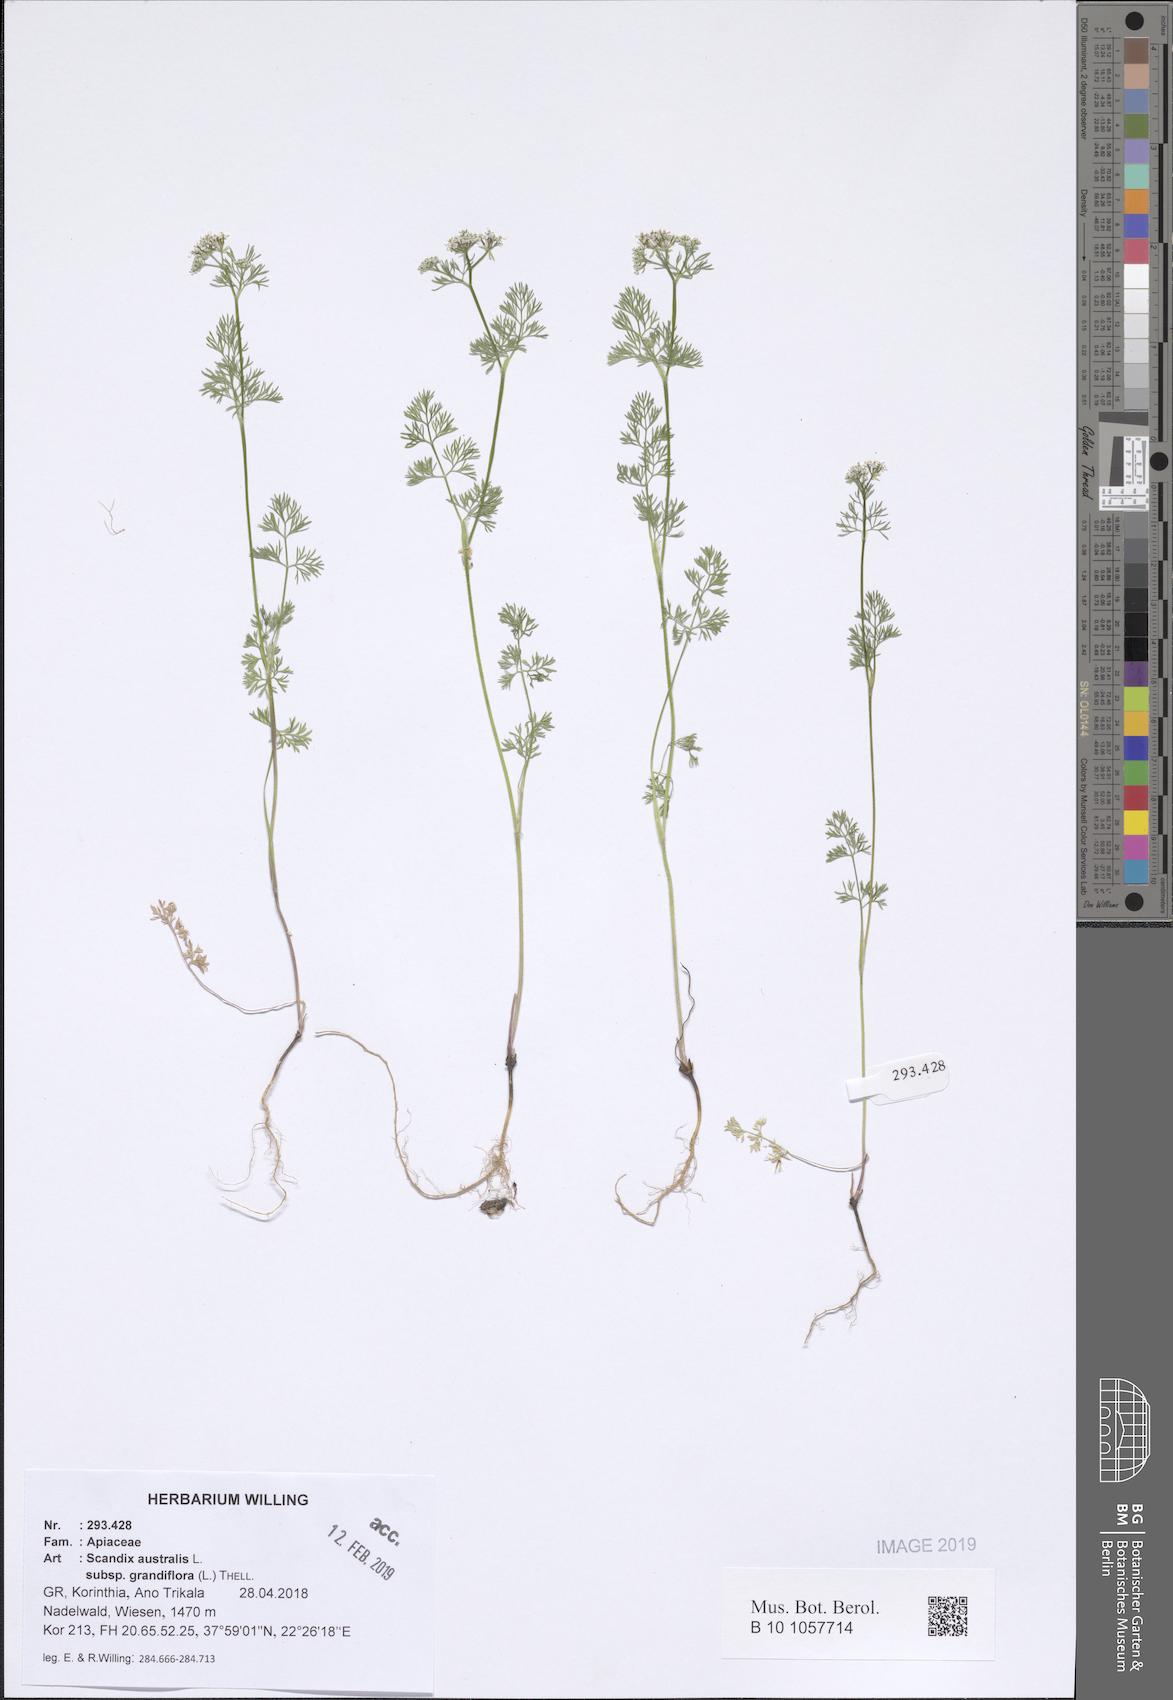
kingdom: Plantae
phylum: Tracheophyta
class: Magnoliopsida
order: Apiales
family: Apiaceae
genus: Scandix
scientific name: Scandix australis
